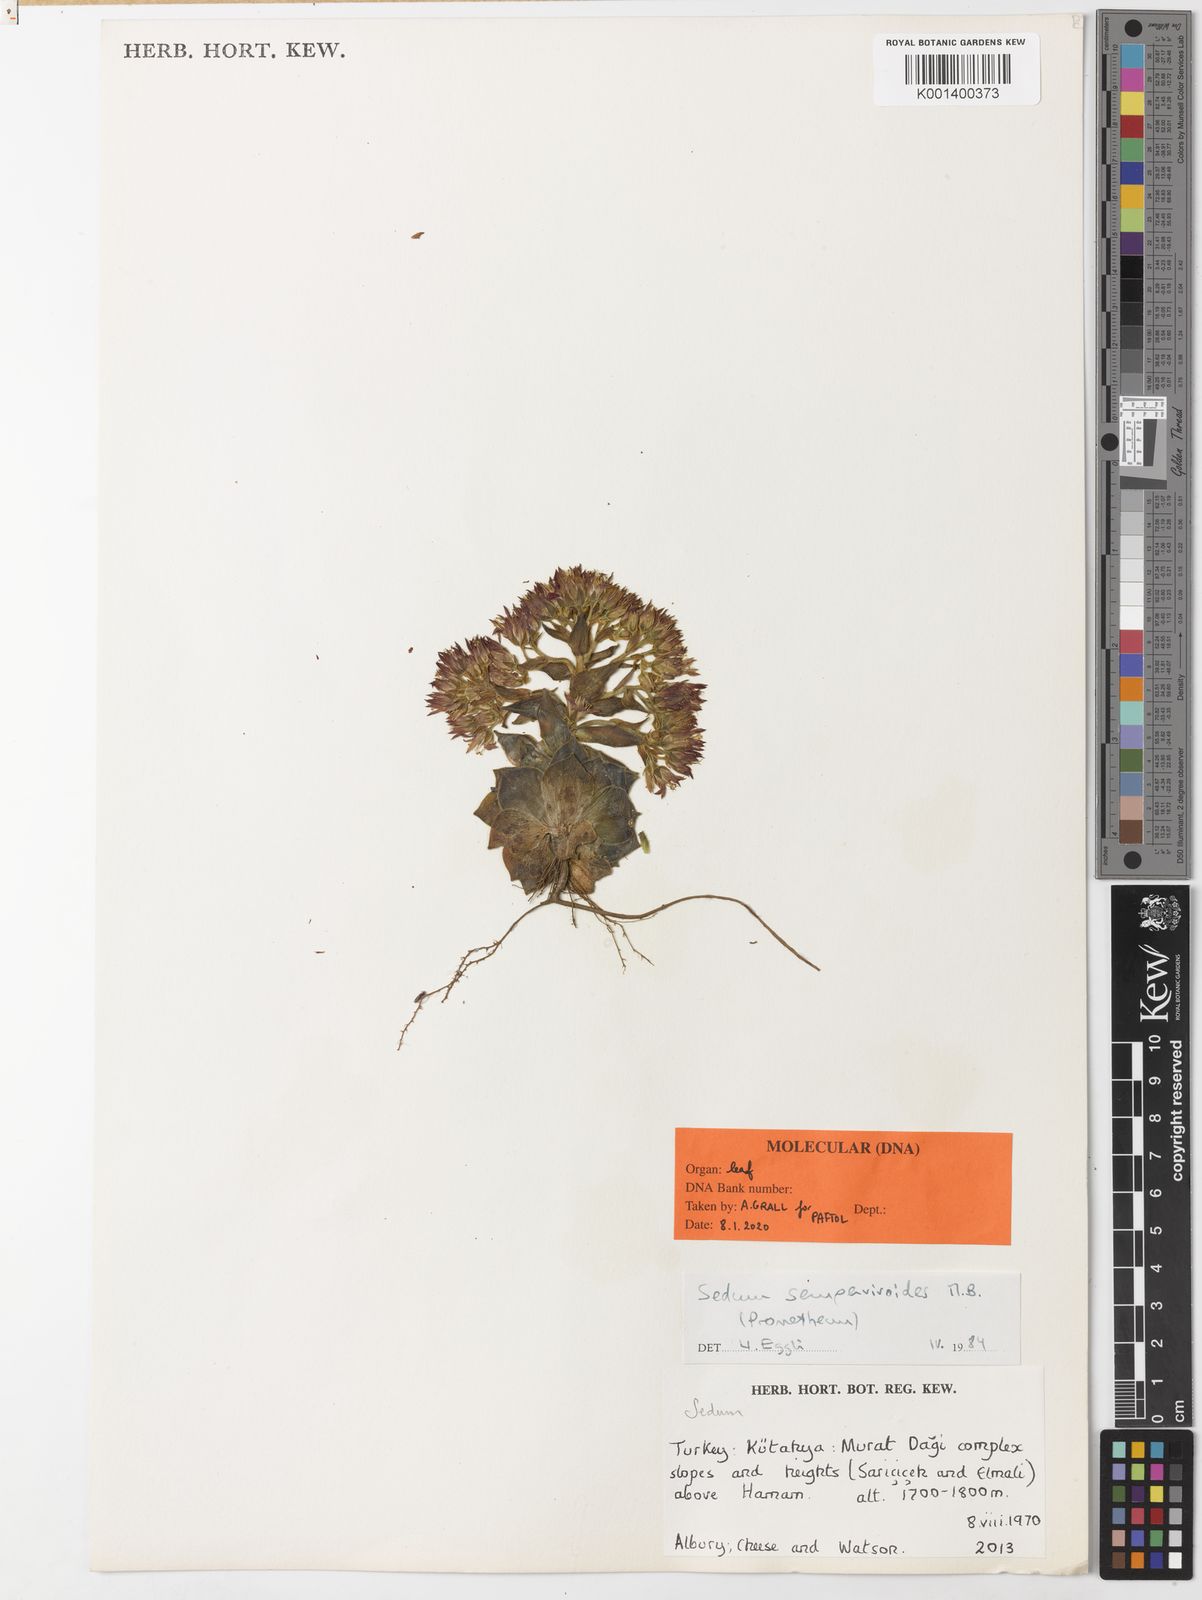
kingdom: Plantae
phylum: Tracheophyta
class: Magnoliopsida
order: Saxifragales
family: Crassulaceae
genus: Prometheum
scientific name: Prometheum sempervivoides
